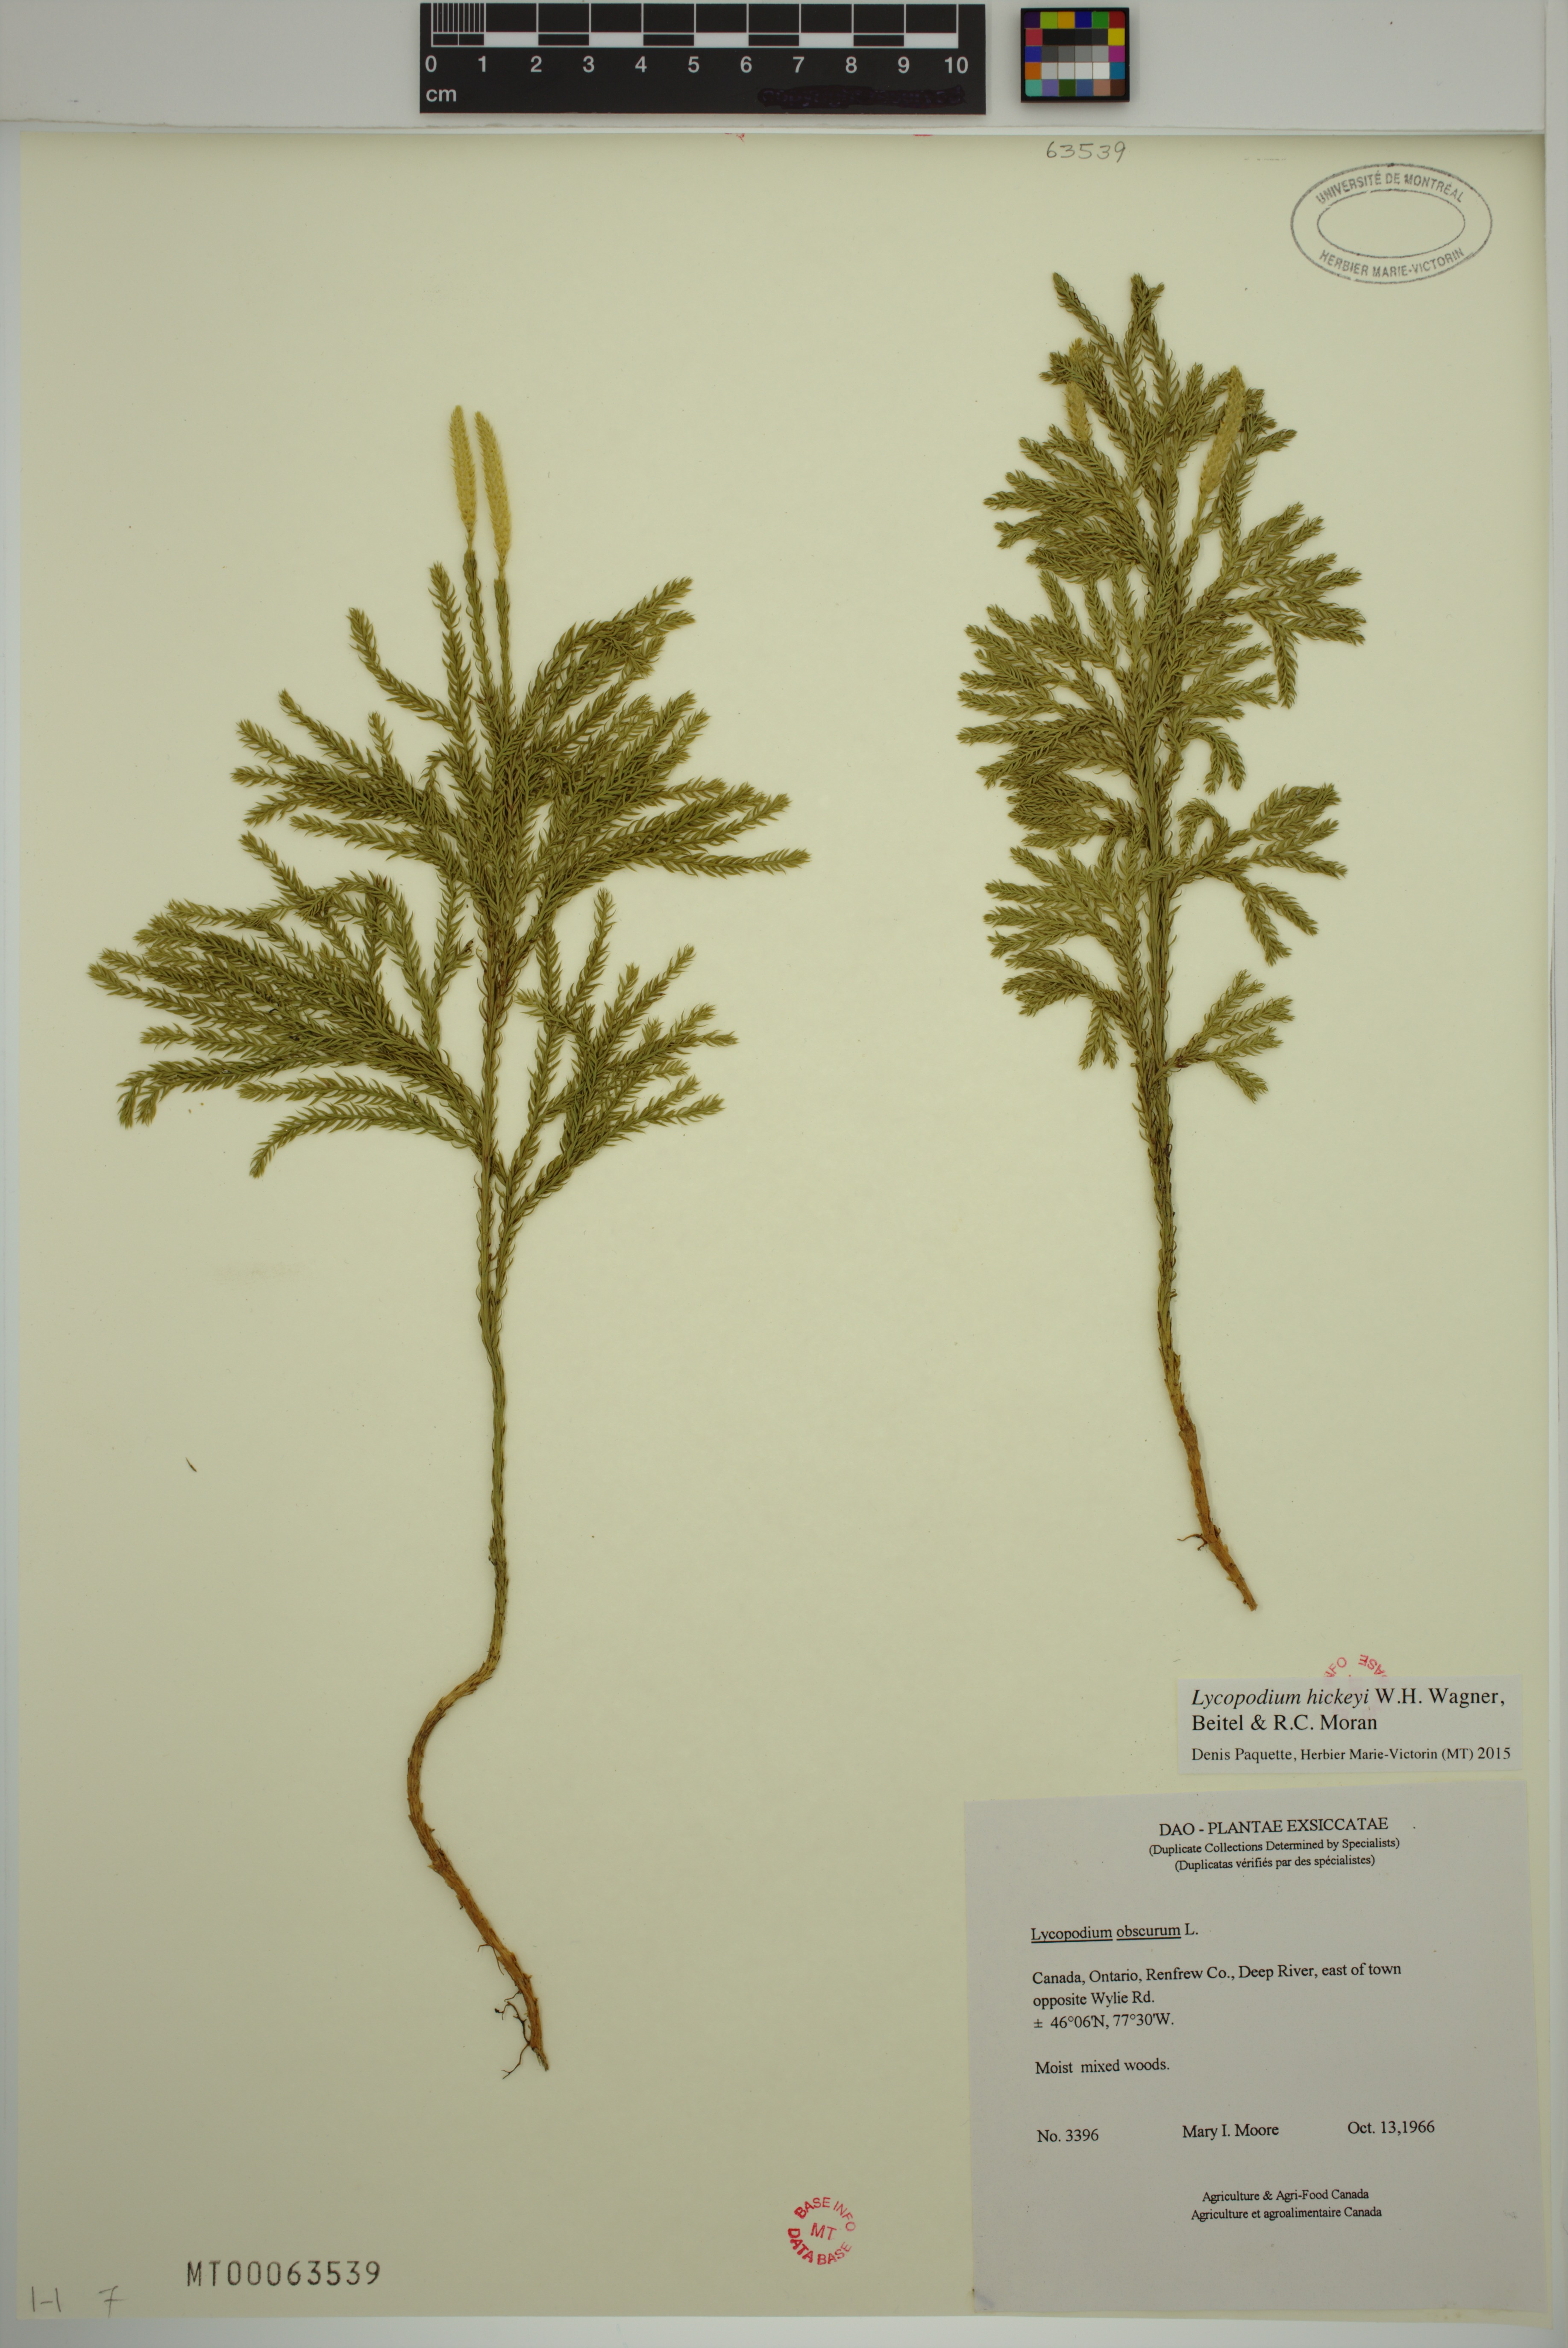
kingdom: Plantae
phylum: Tracheophyta
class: Lycopodiopsida
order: Lycopodiales
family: Lycopodiaceae
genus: Dendrolycopodium
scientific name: Dendrolycopodium hickeyi
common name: Hickey's clubmoss
